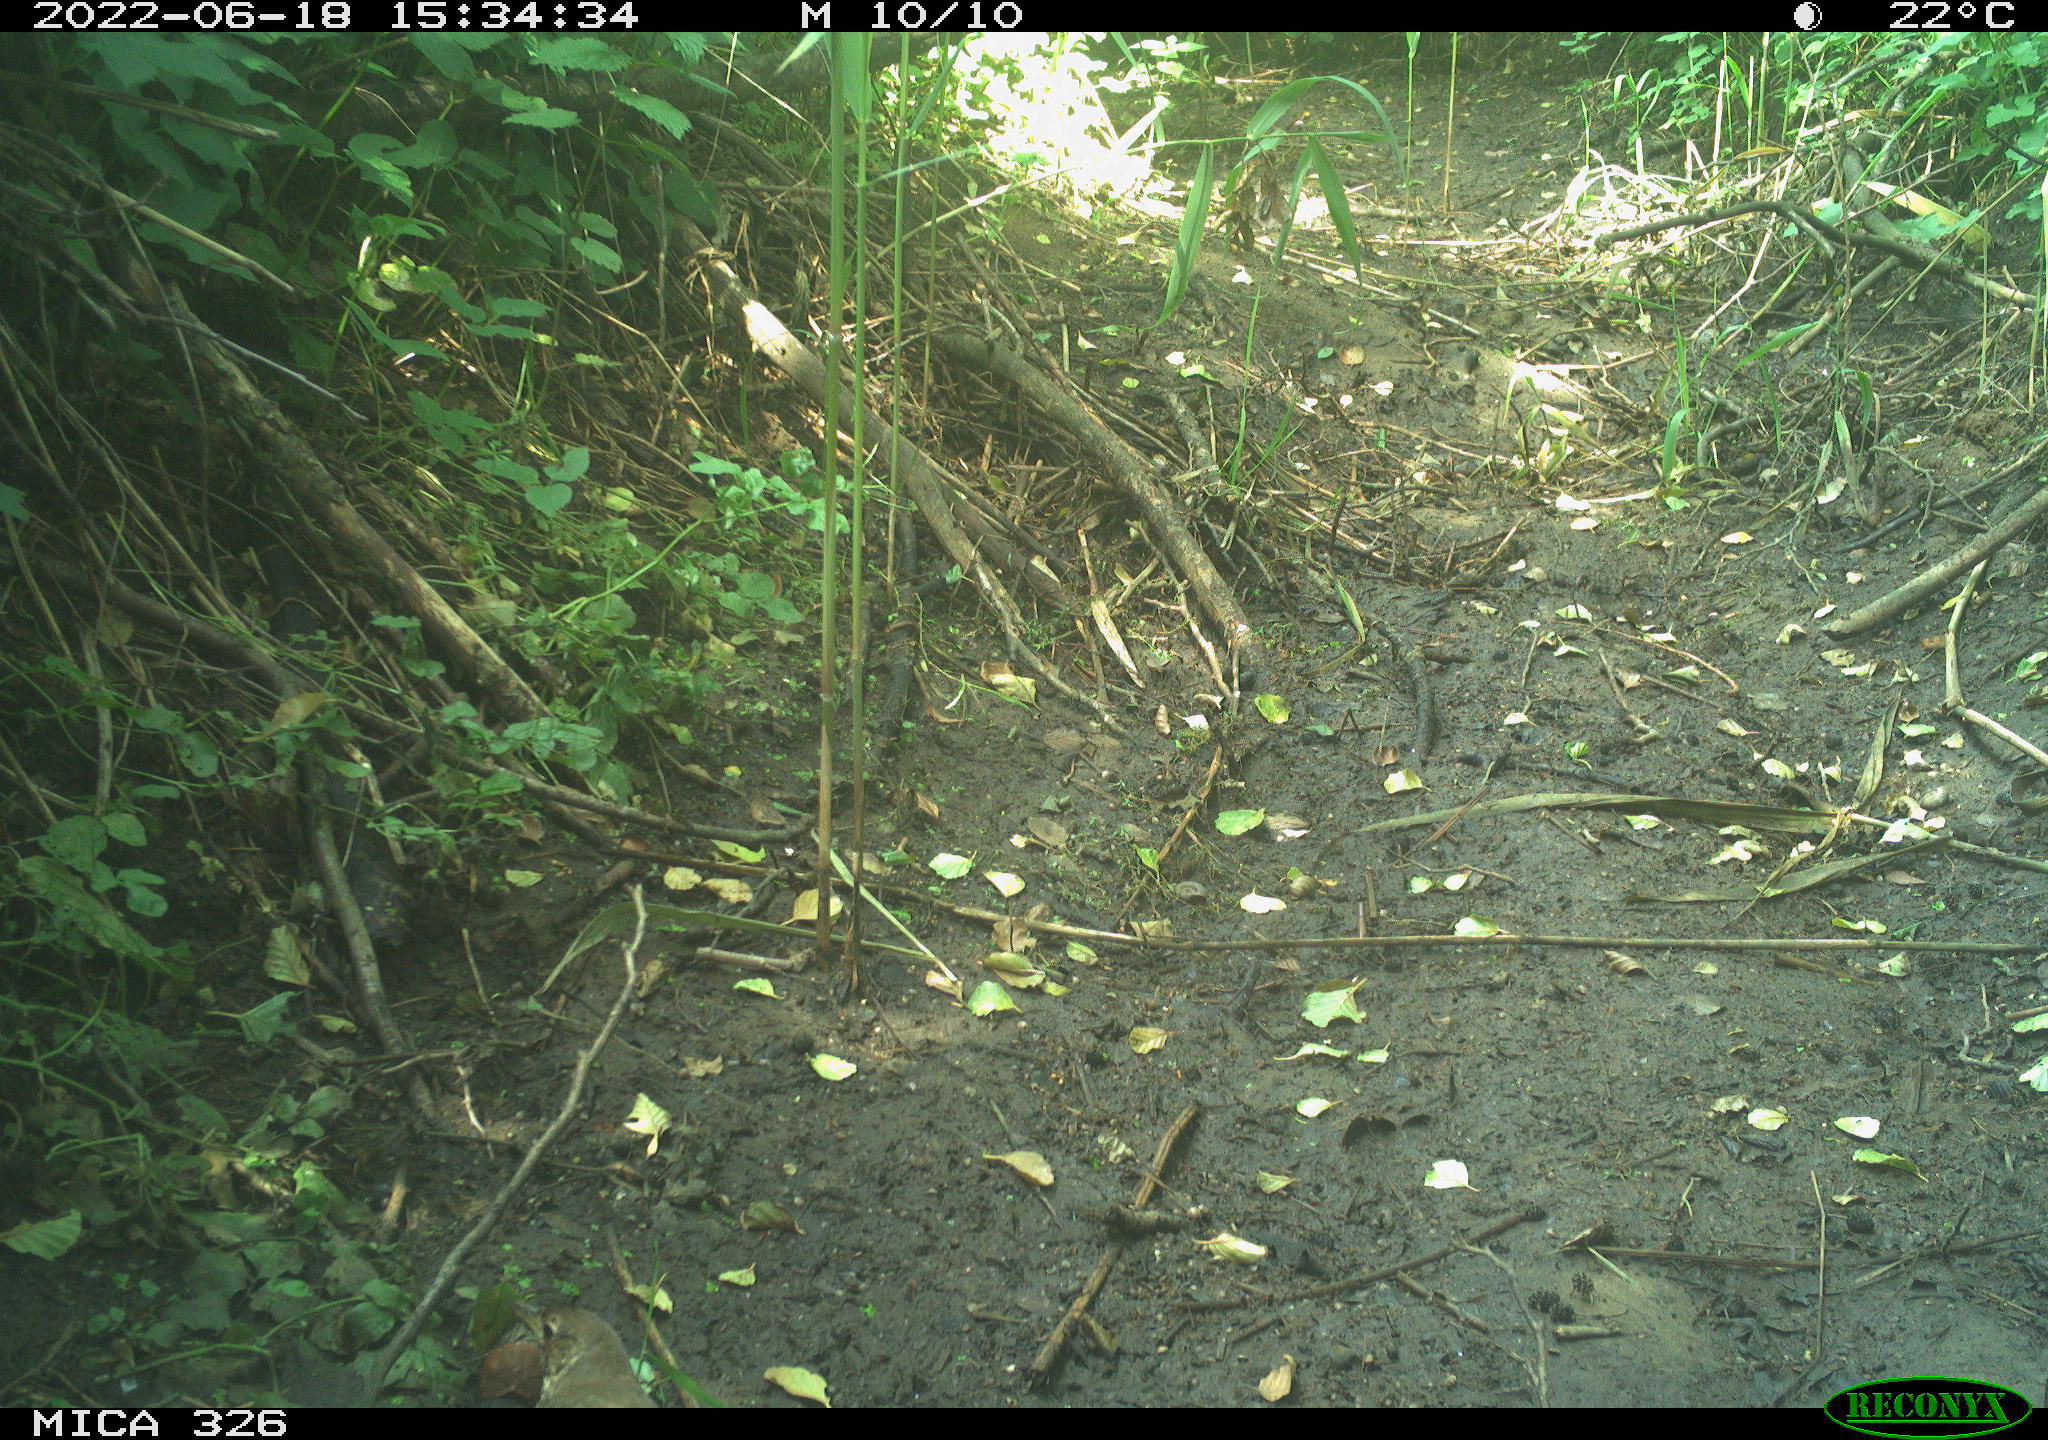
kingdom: Animalia
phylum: Chordata
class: Aves
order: Passeriformes
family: Turdidae
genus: Turdus
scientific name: Turdus philomelos
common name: Song thrush
